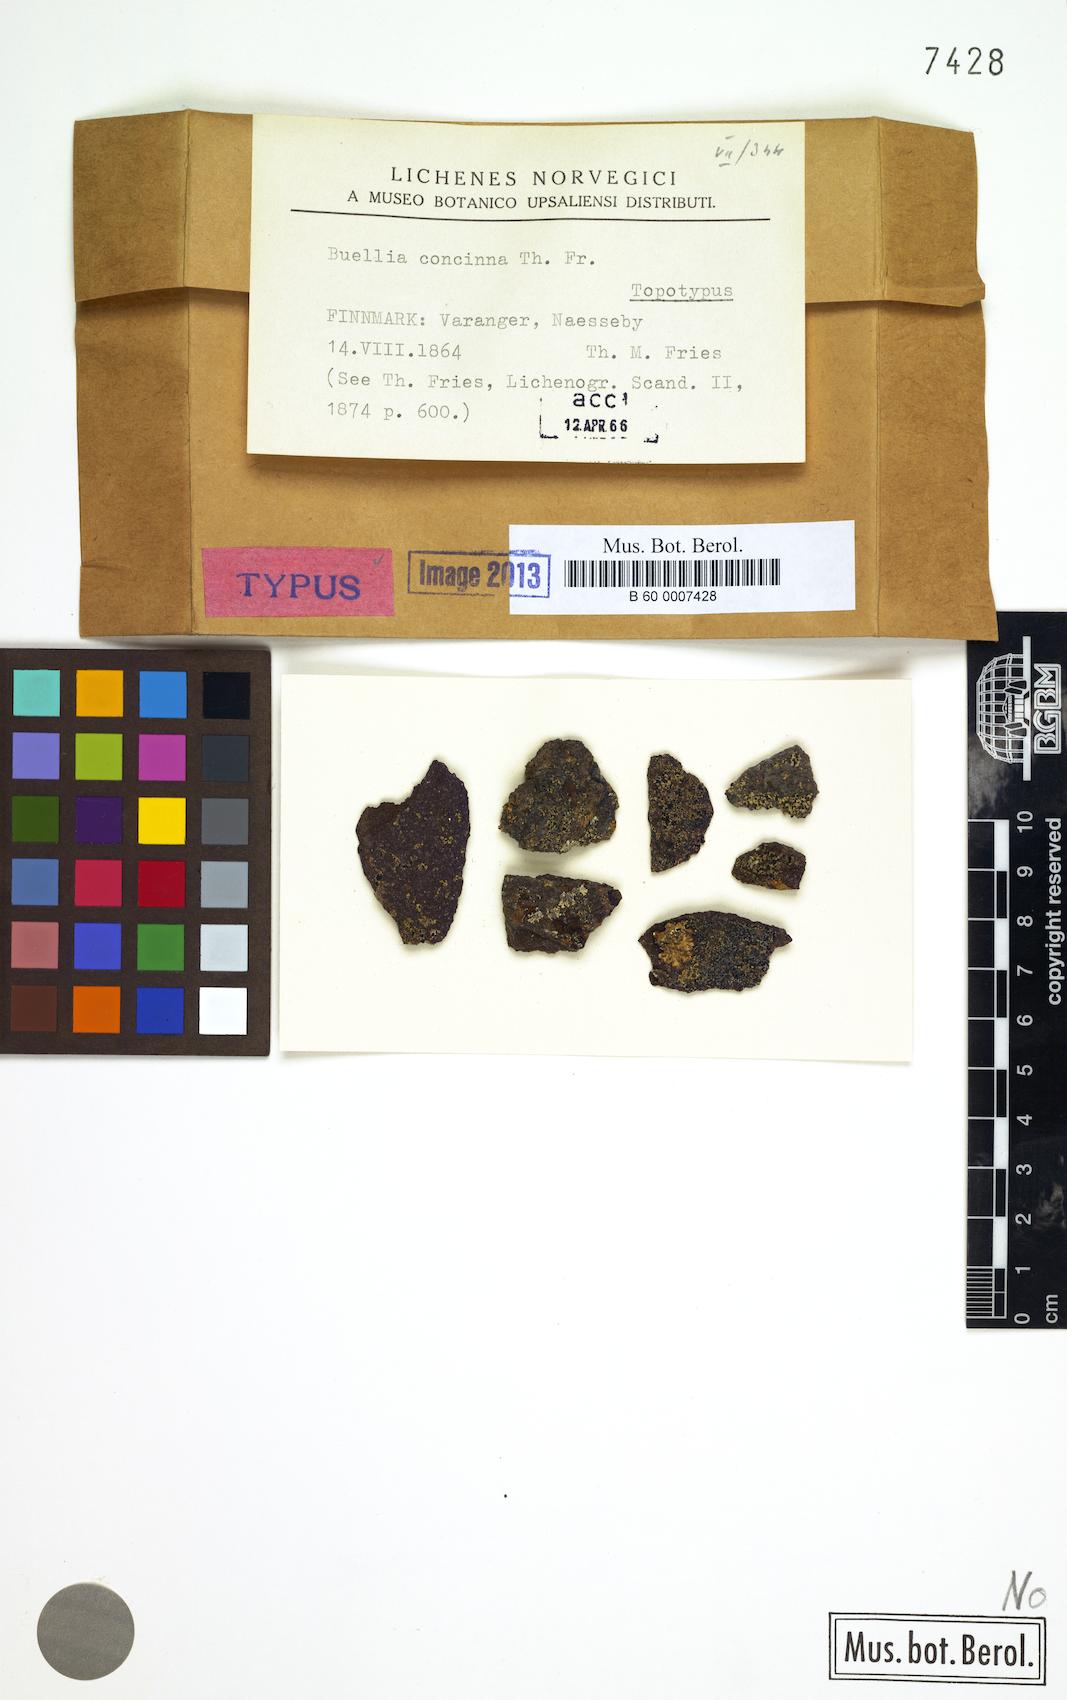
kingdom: Fungi
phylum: Ascomycota
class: Lecanoromycetes
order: Caliciales
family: Caliciaceae
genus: Tetramelas
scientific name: Tetramelas concinnus
